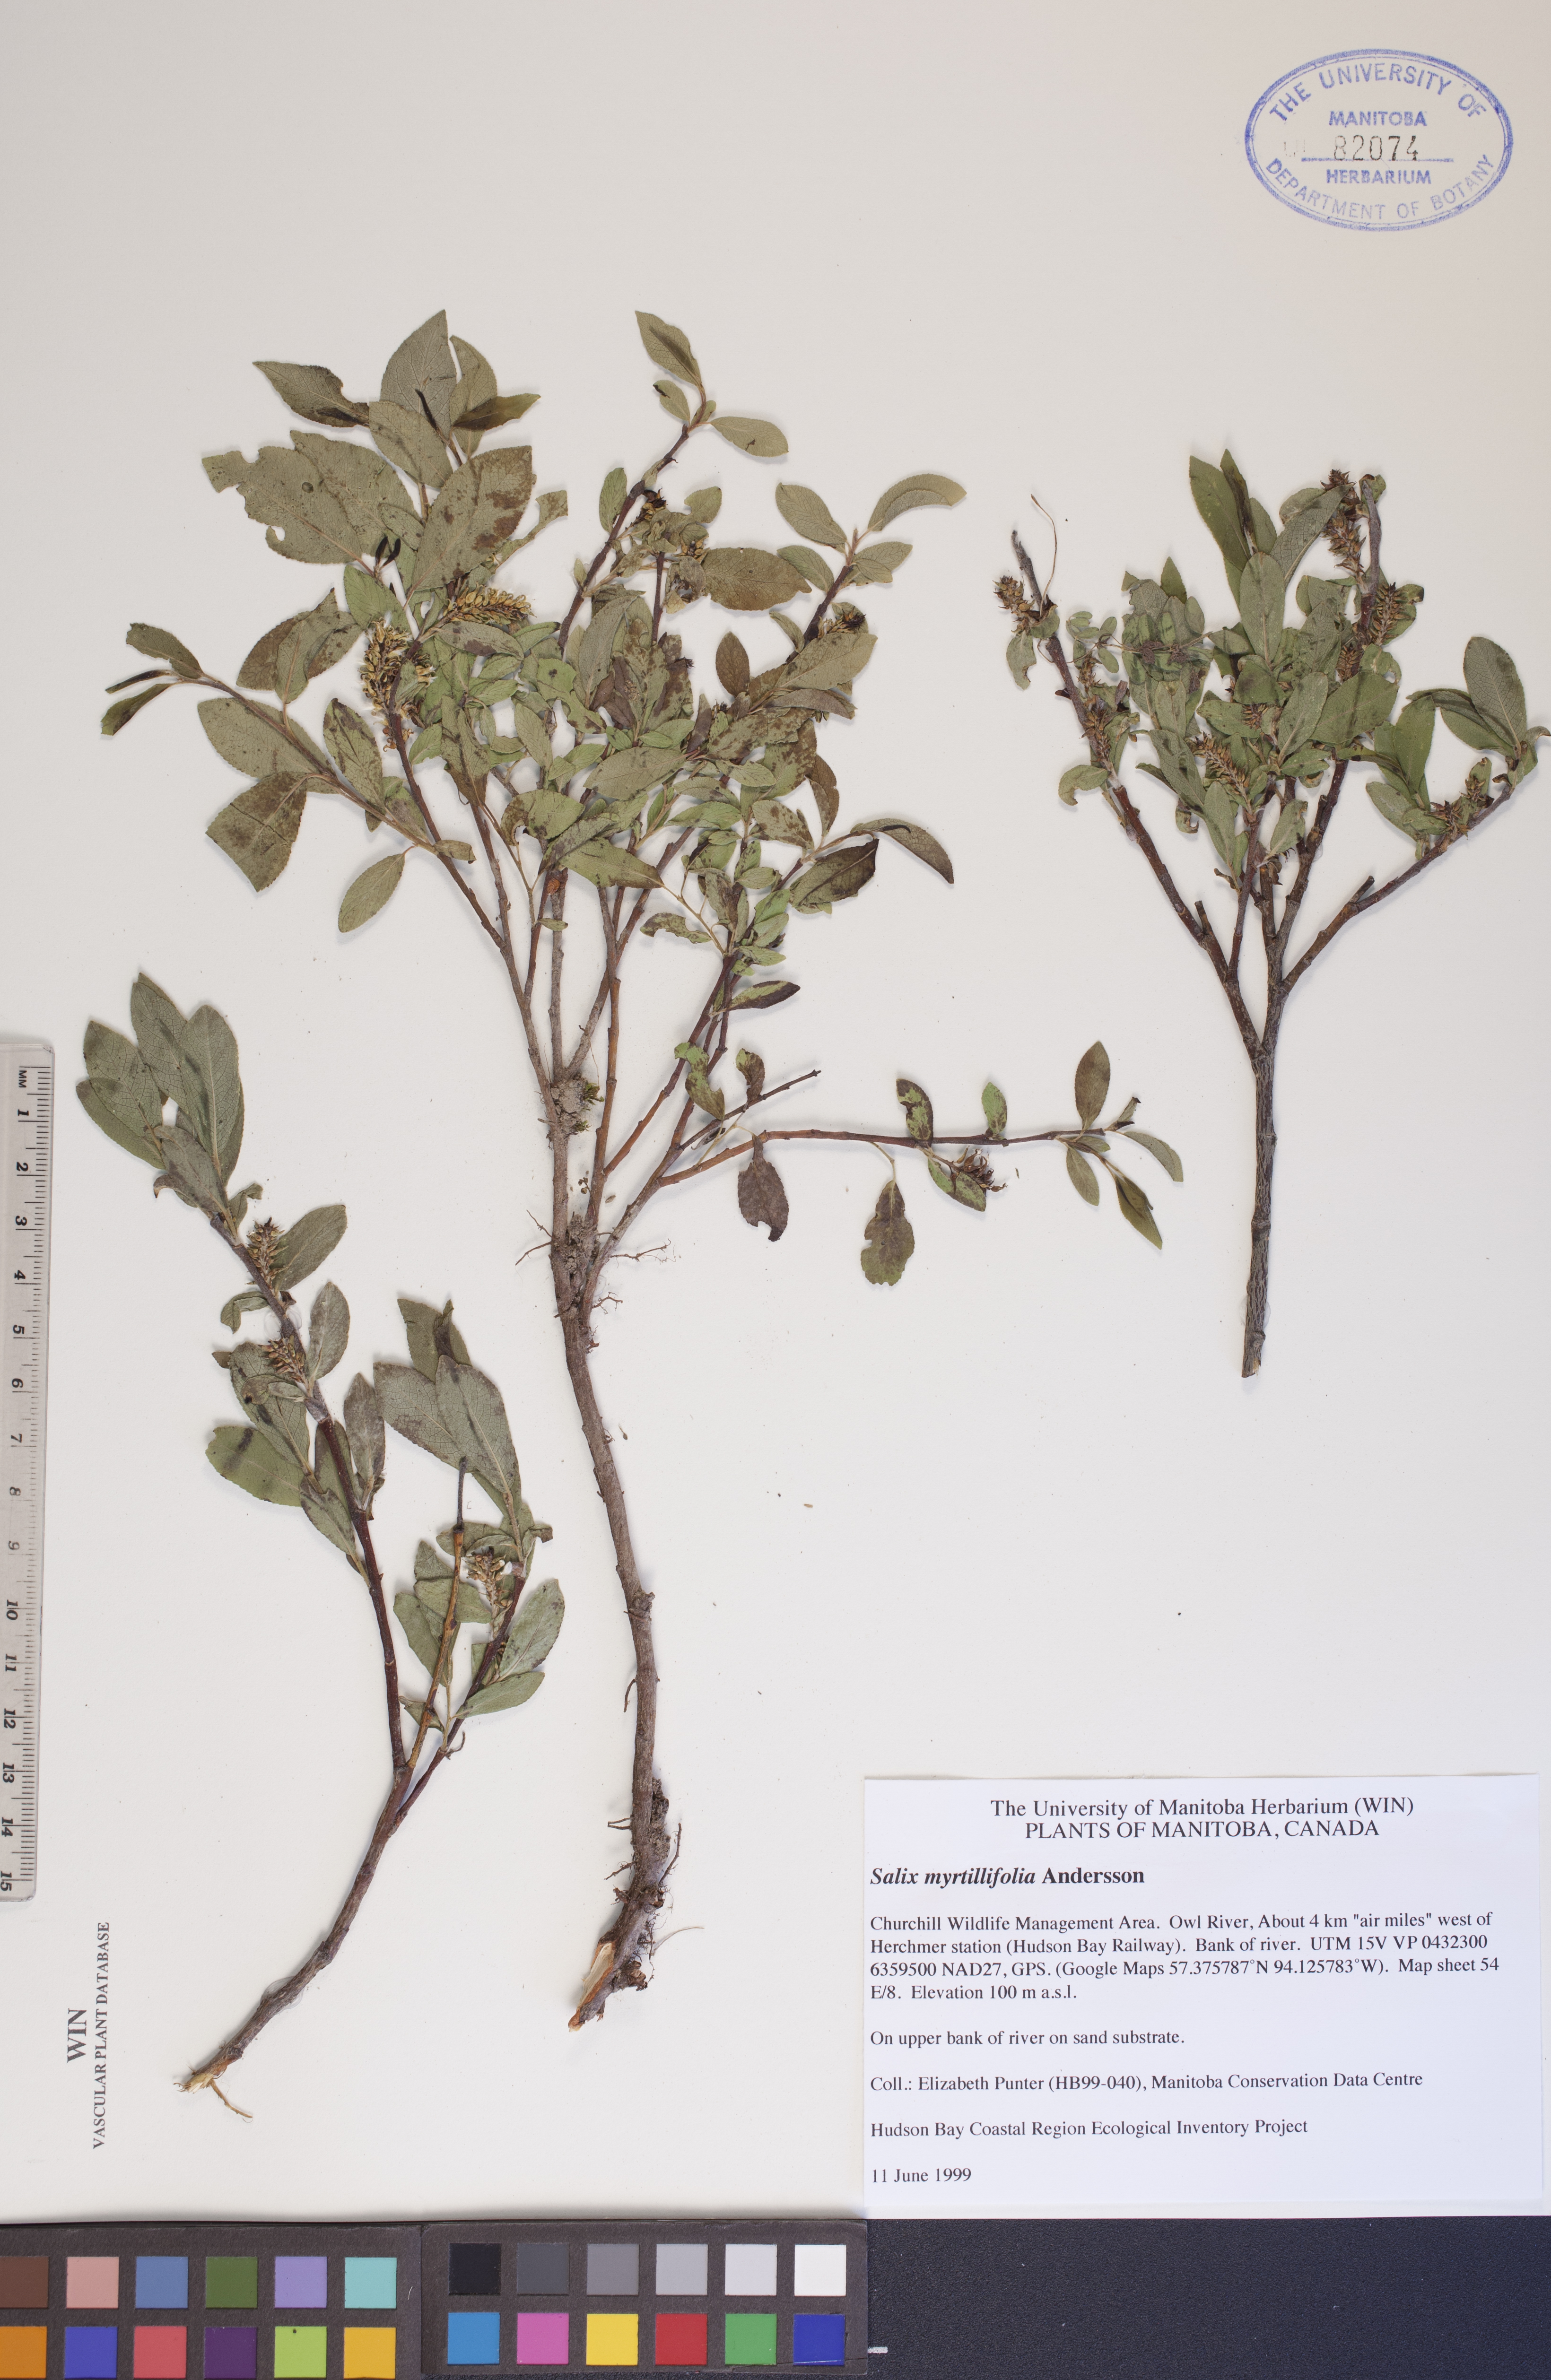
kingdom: Plantae
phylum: Tracheophyta
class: Magnoliopsida
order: Malpighiales
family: Salicaceae
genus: Salix
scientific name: Salix myrtillifolia
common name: Bilberry willow
